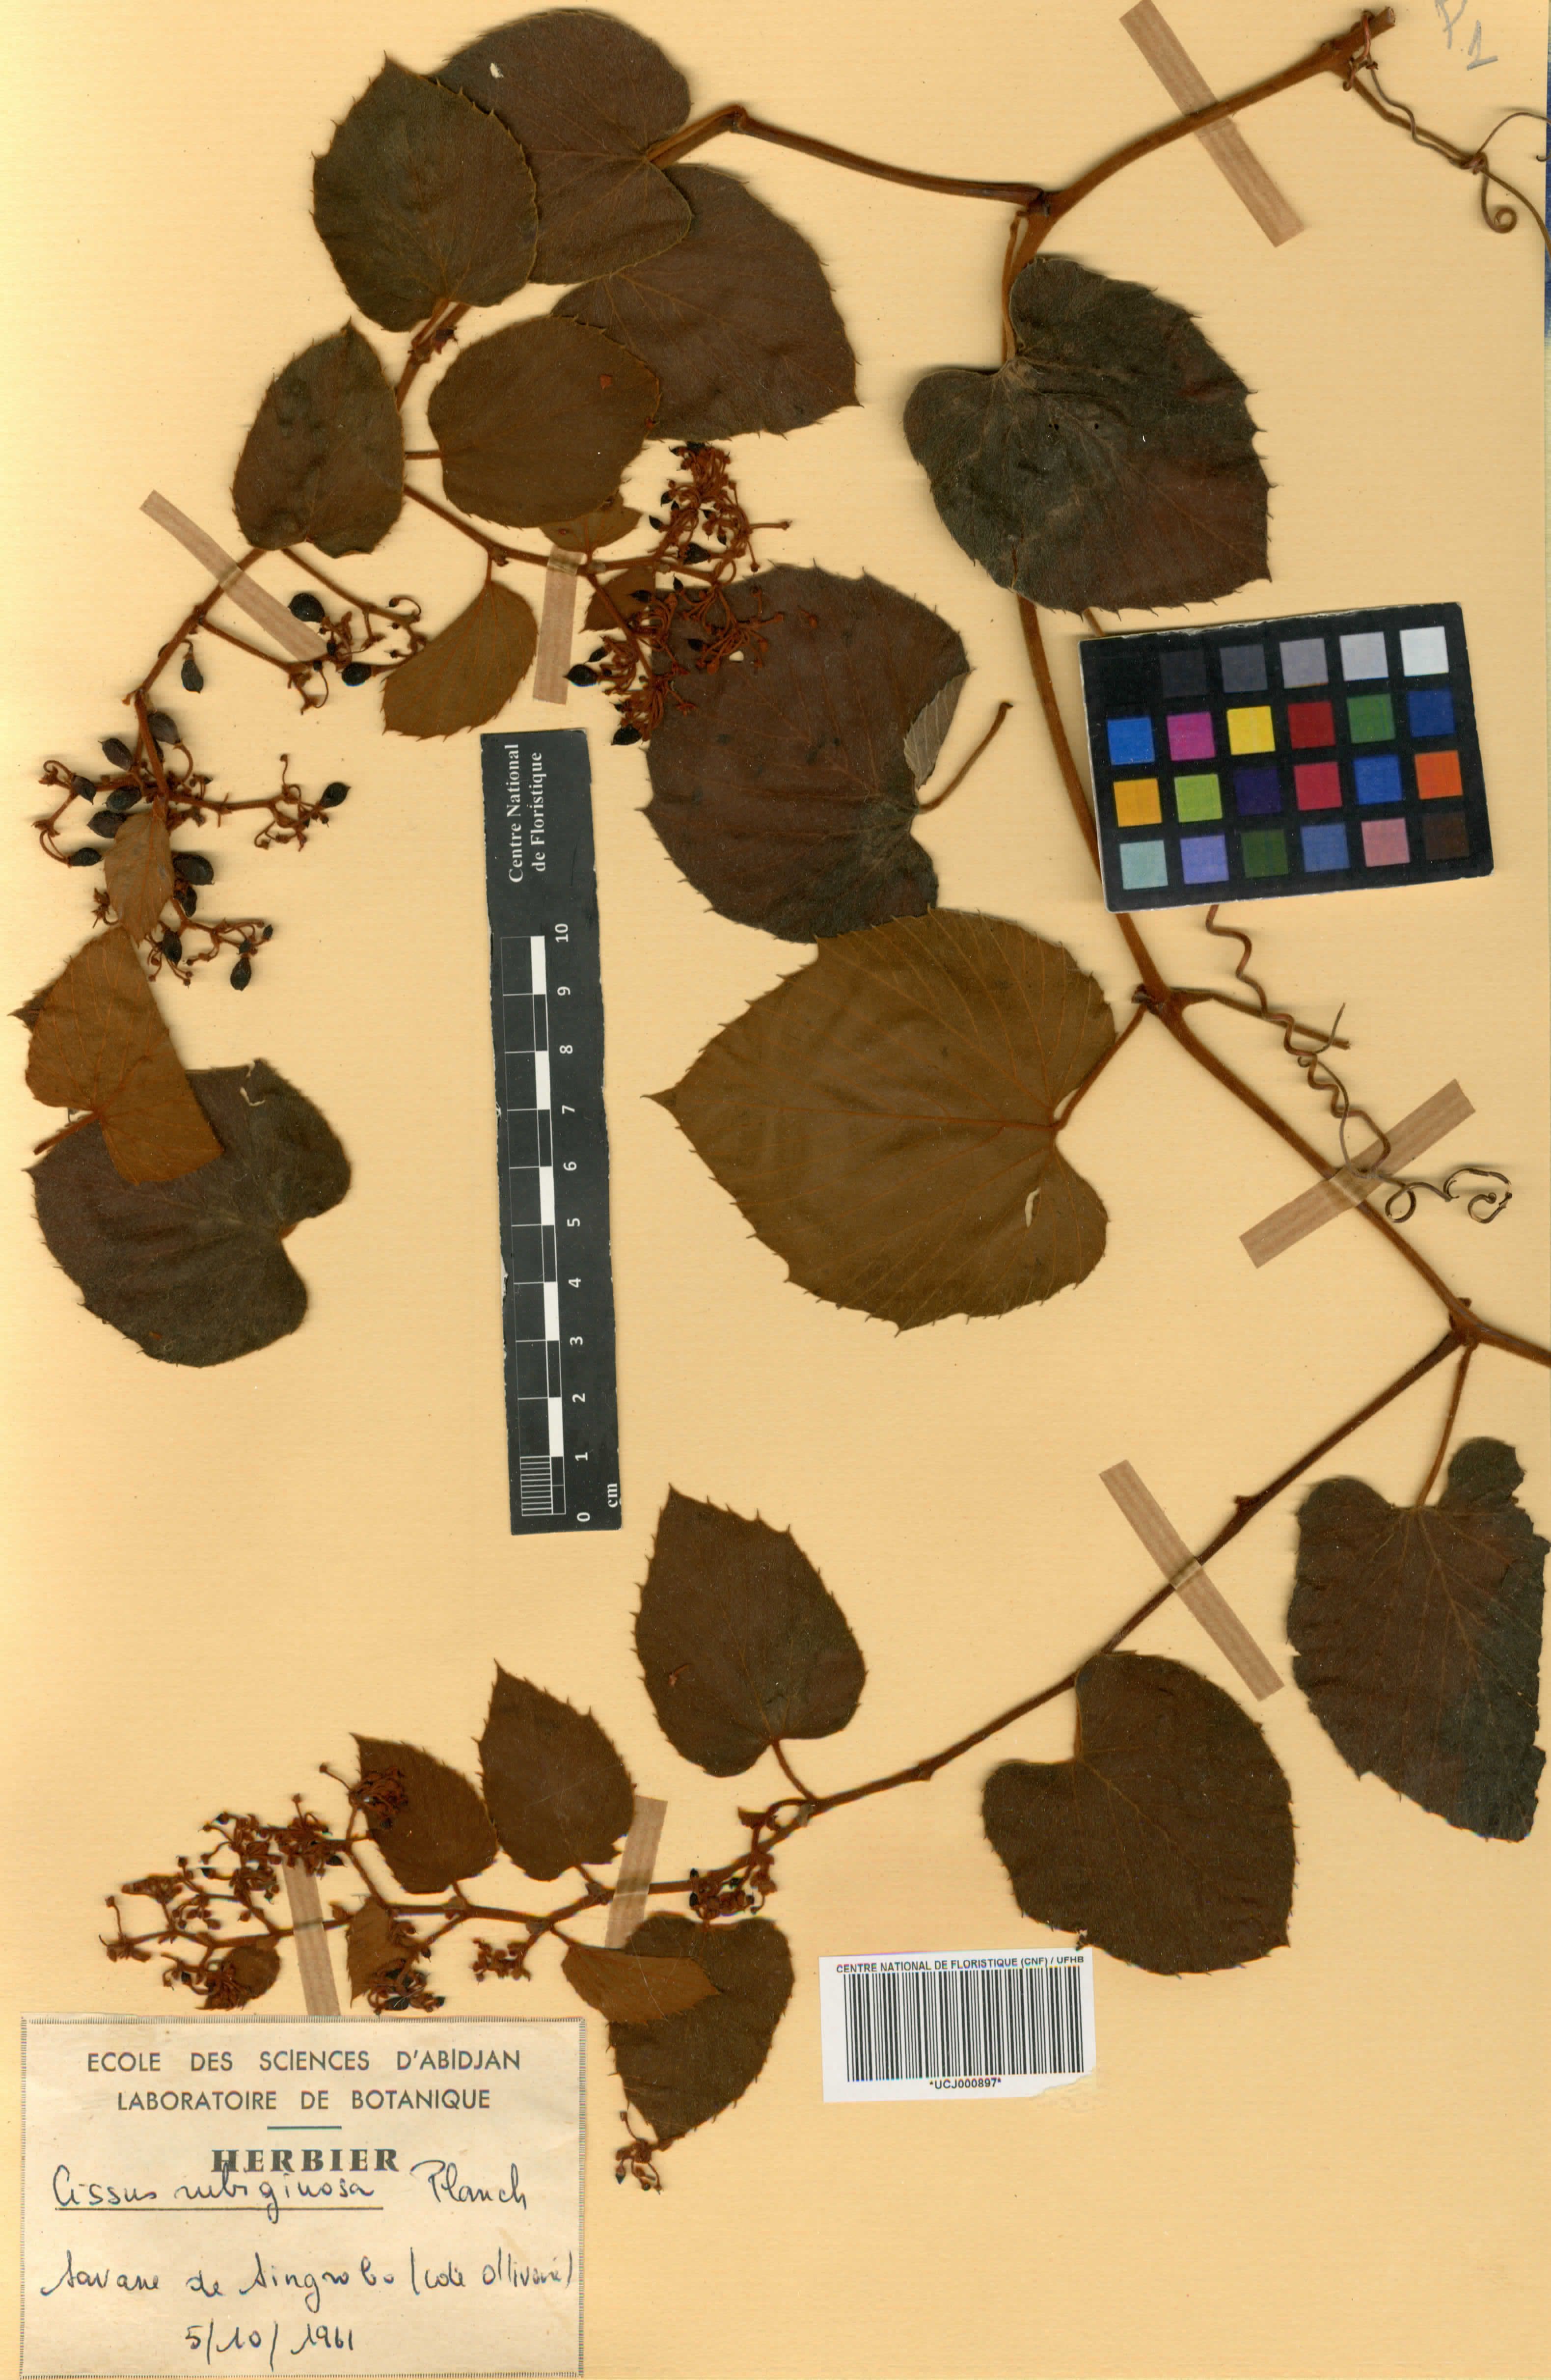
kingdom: Plantae
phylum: Tracheophyta
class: Magnoliopsida
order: Vitales
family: Vitaceae
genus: Cissus
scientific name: Cissus rubiginosa
